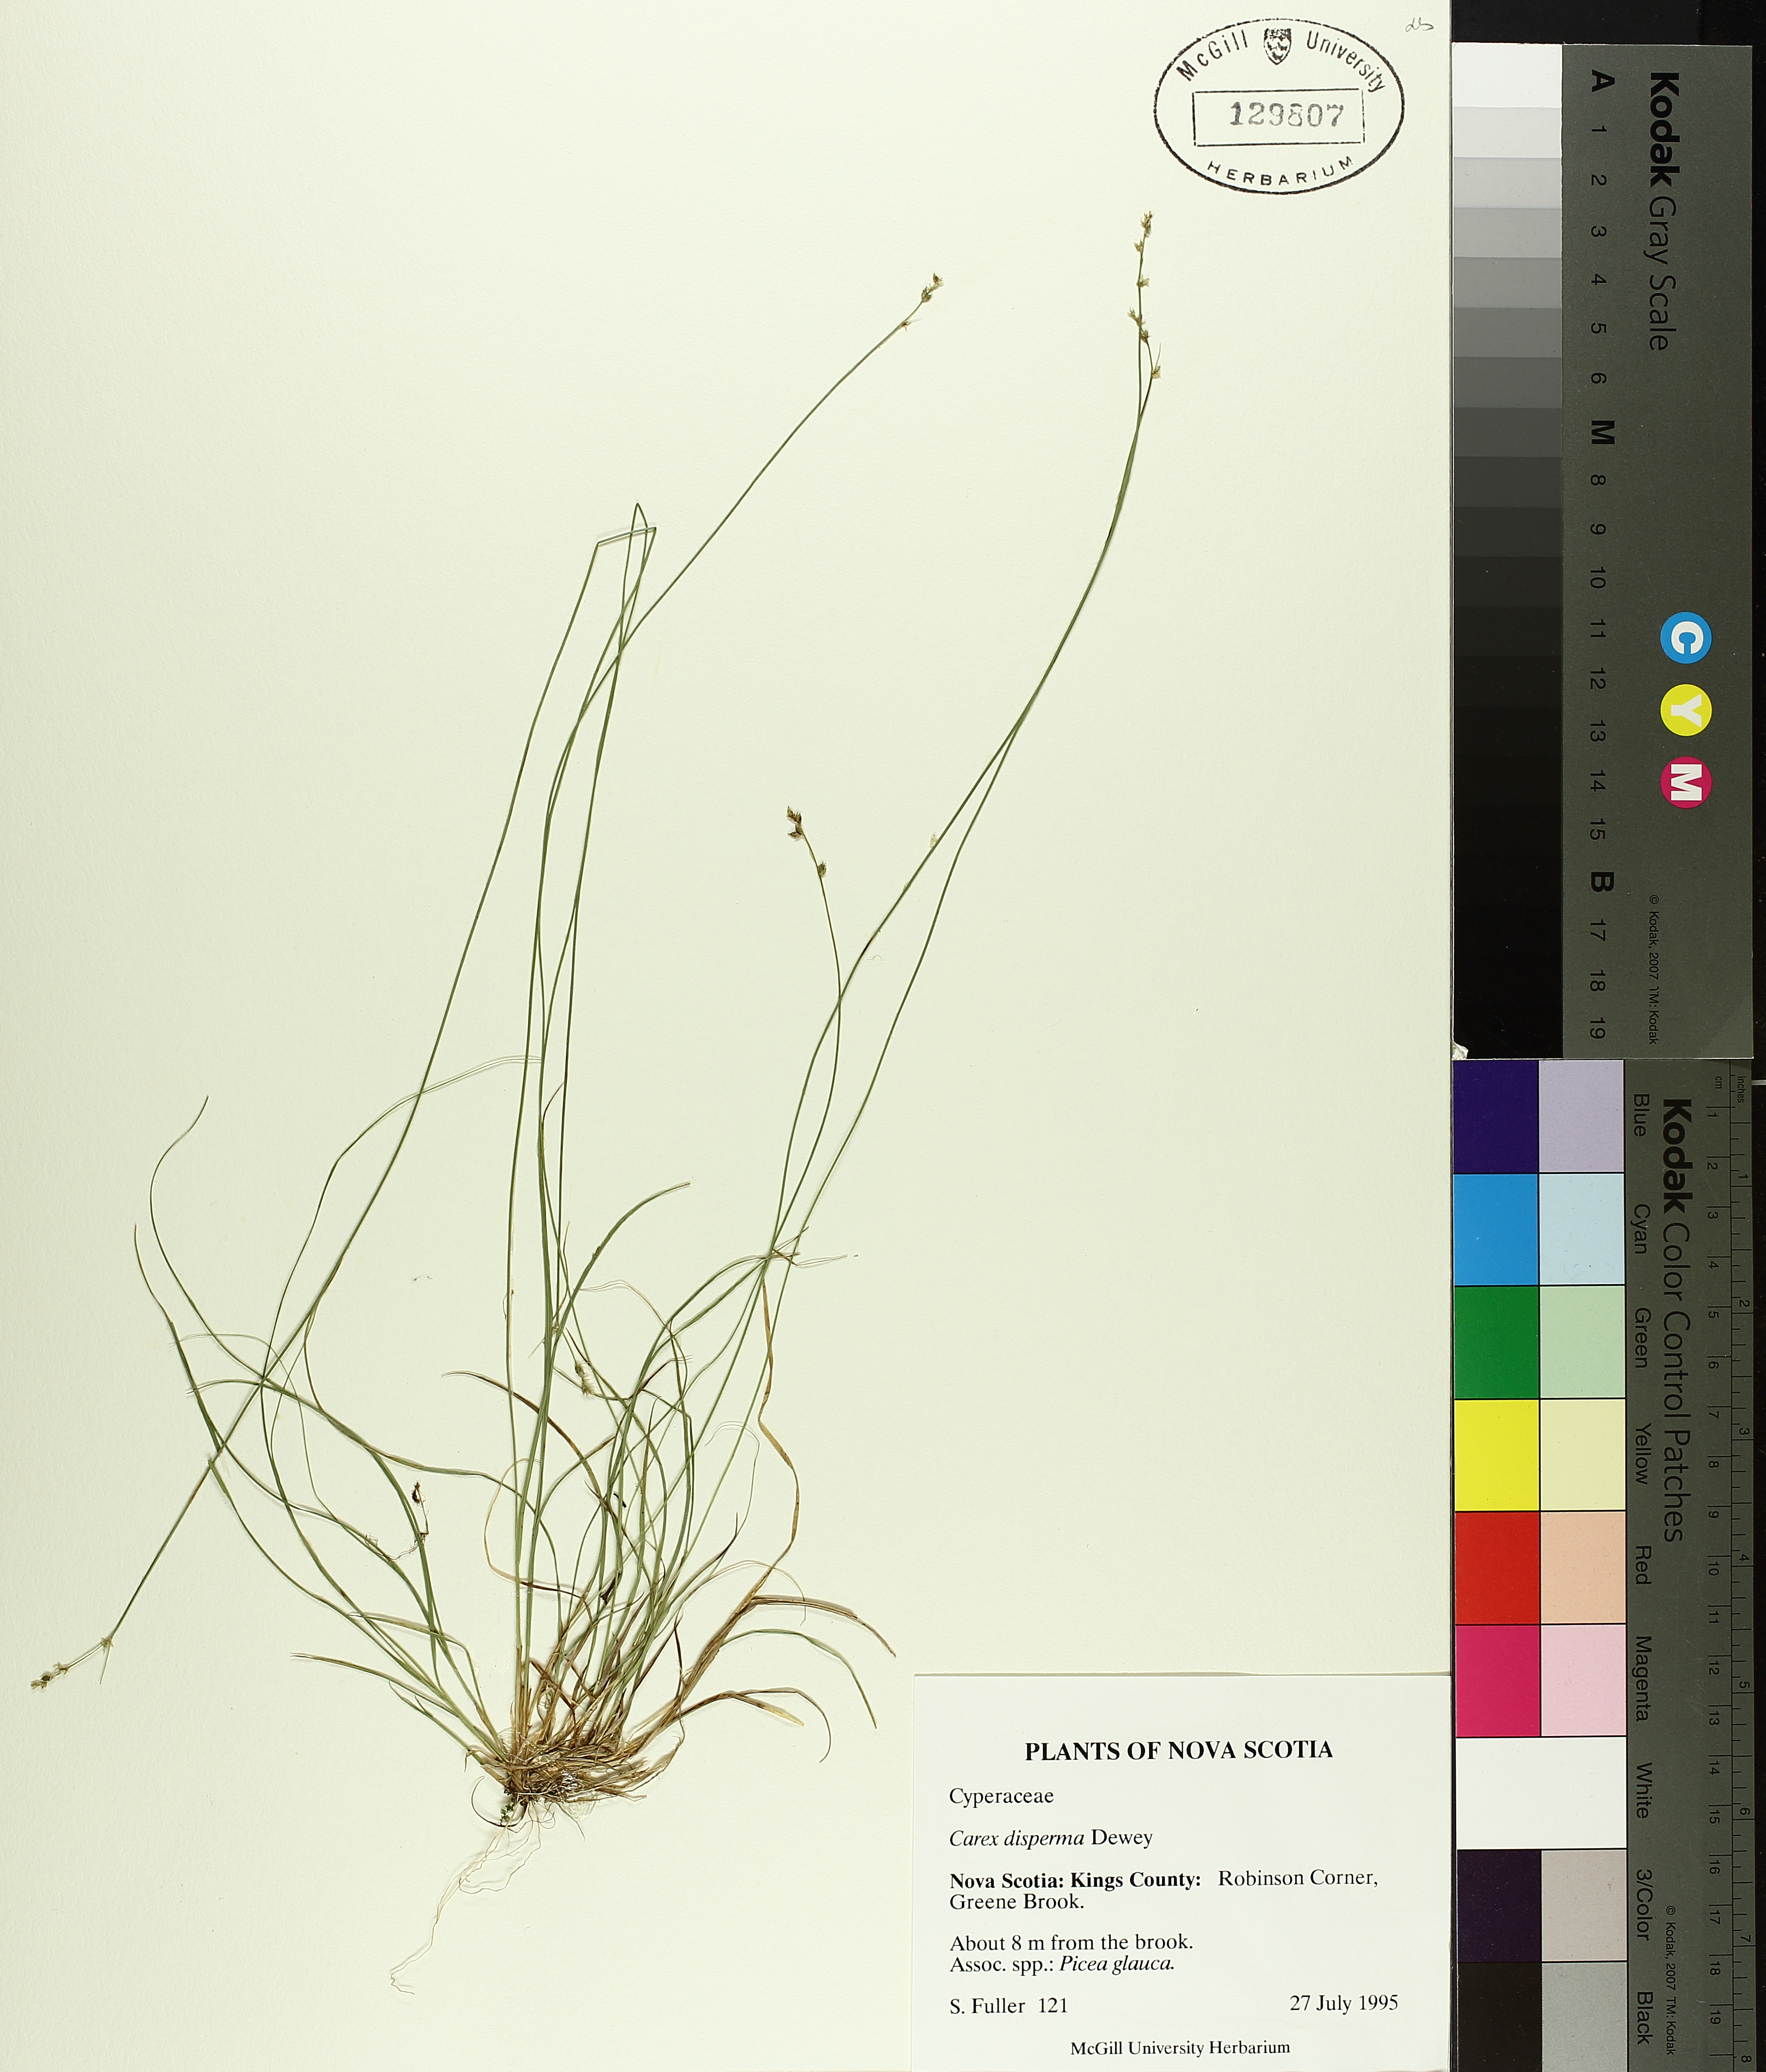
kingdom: Plantae
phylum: Tracheophyta
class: Liliopsida
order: Poales
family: Cyperaceae
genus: Carex
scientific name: Carex disperma
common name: Short-leaved sedge
